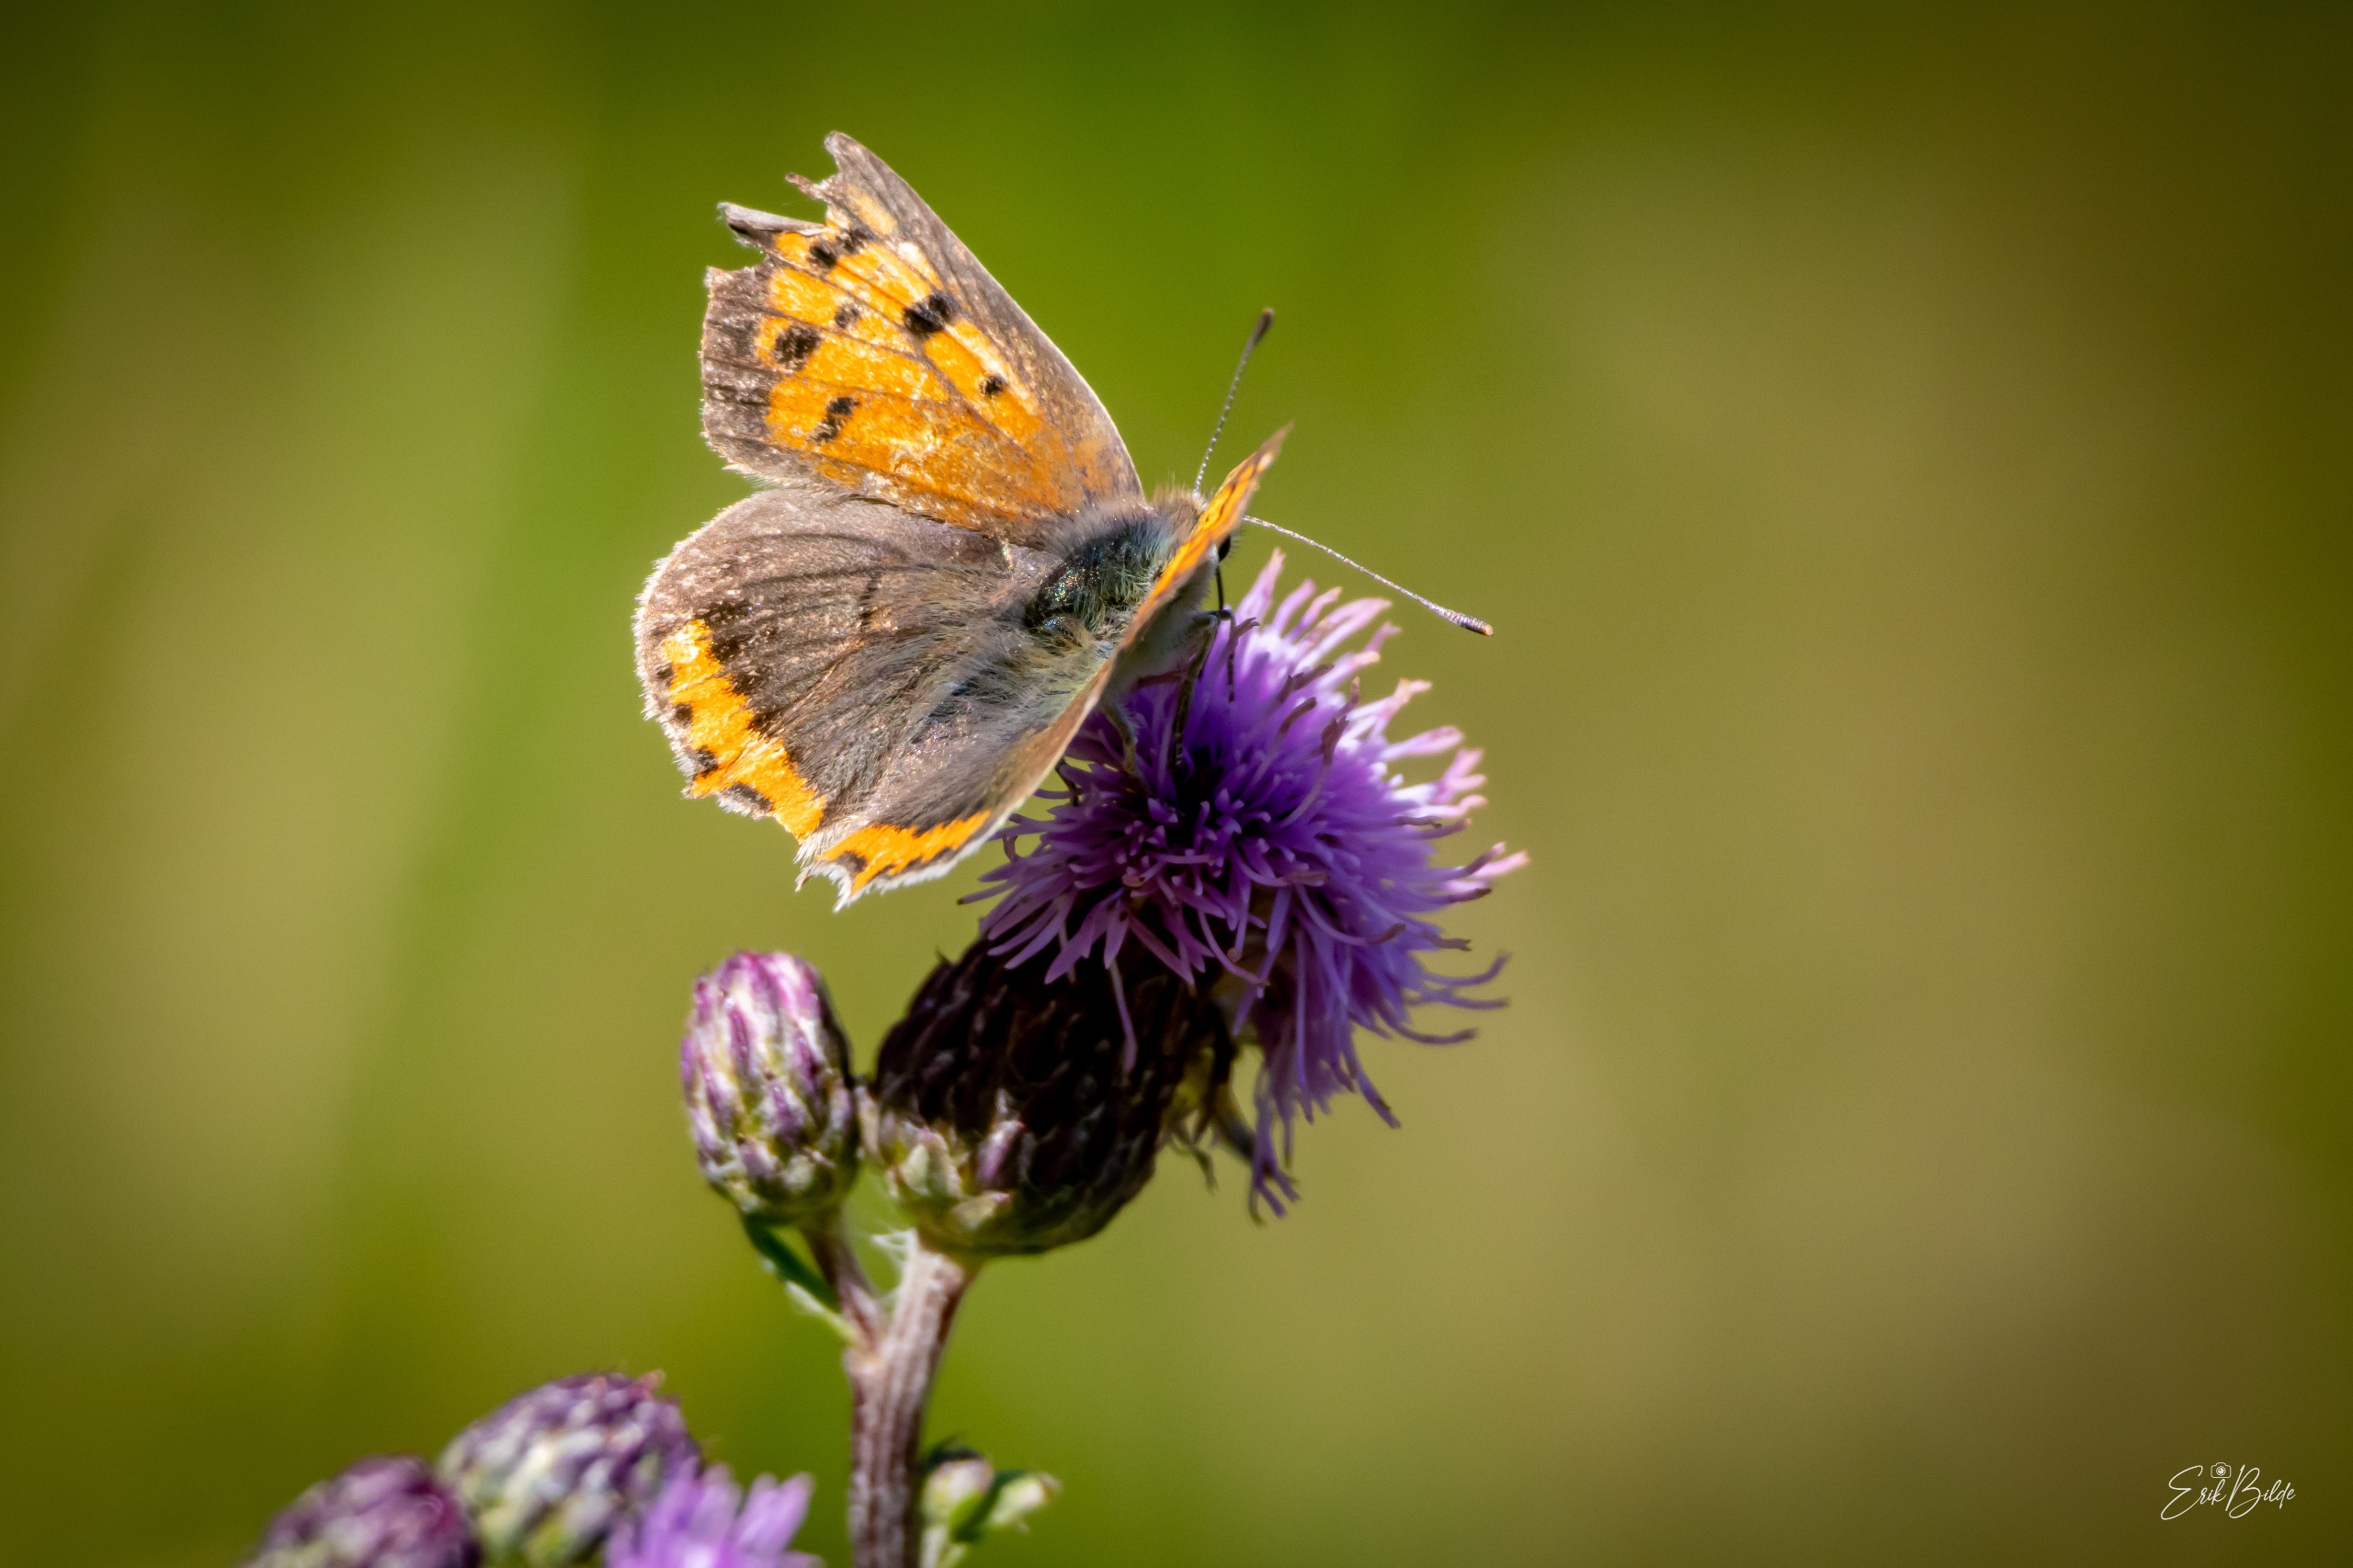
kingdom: Animalia
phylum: Arthropoda
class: Insecta
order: Lepidoptera
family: Lycaenidae
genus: Lycaena
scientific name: Lycaena phlaeas
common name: Lille ildfugl
